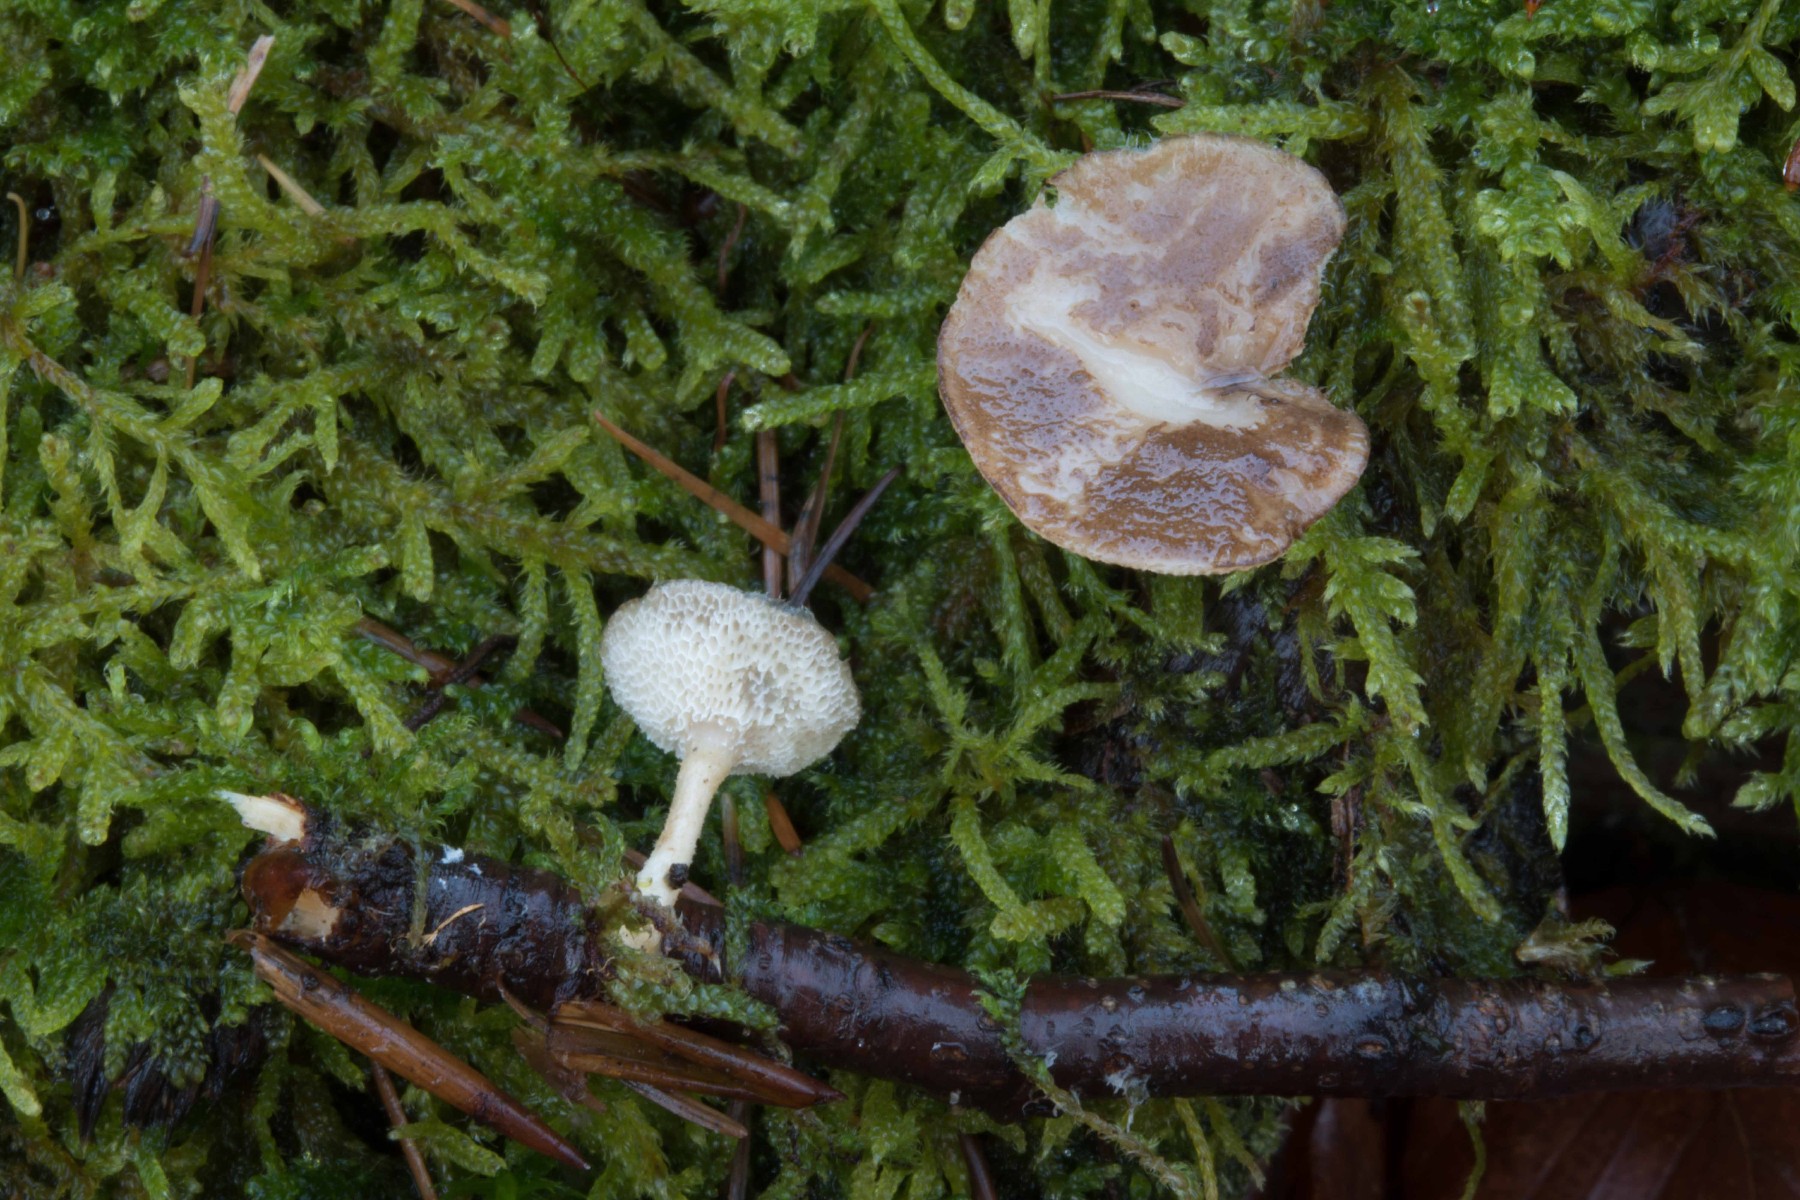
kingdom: Fungi
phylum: Basidiomycota
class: Agaricomycetes
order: Polyporales
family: Polyporaceae
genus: Lentinus
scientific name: Lentinus brumalis
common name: vinter-stilkporesvamp
